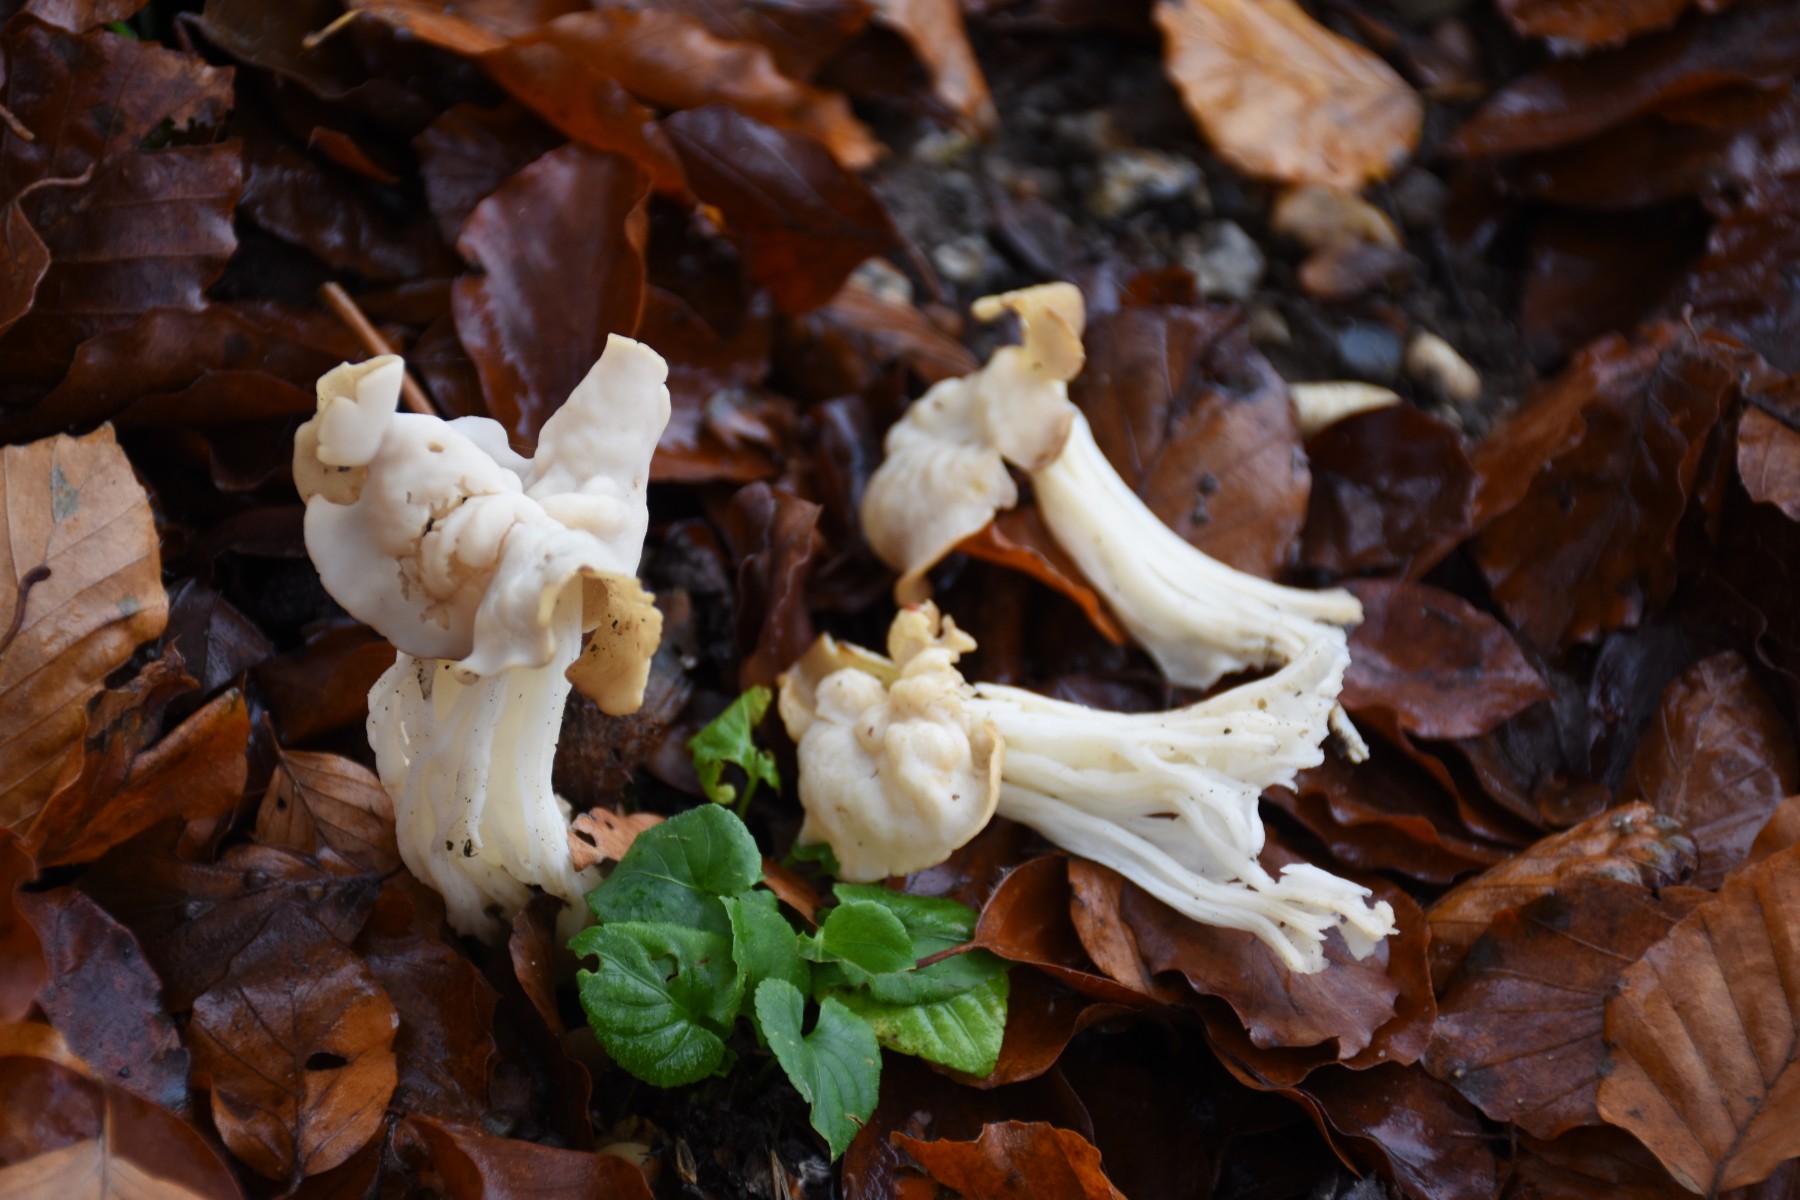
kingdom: Fungi
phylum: Ascomycota
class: Pezizomycetes
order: Pezizales
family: Helvellaceae
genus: Helvella
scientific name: Helvella crispa
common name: kruset foldhat
